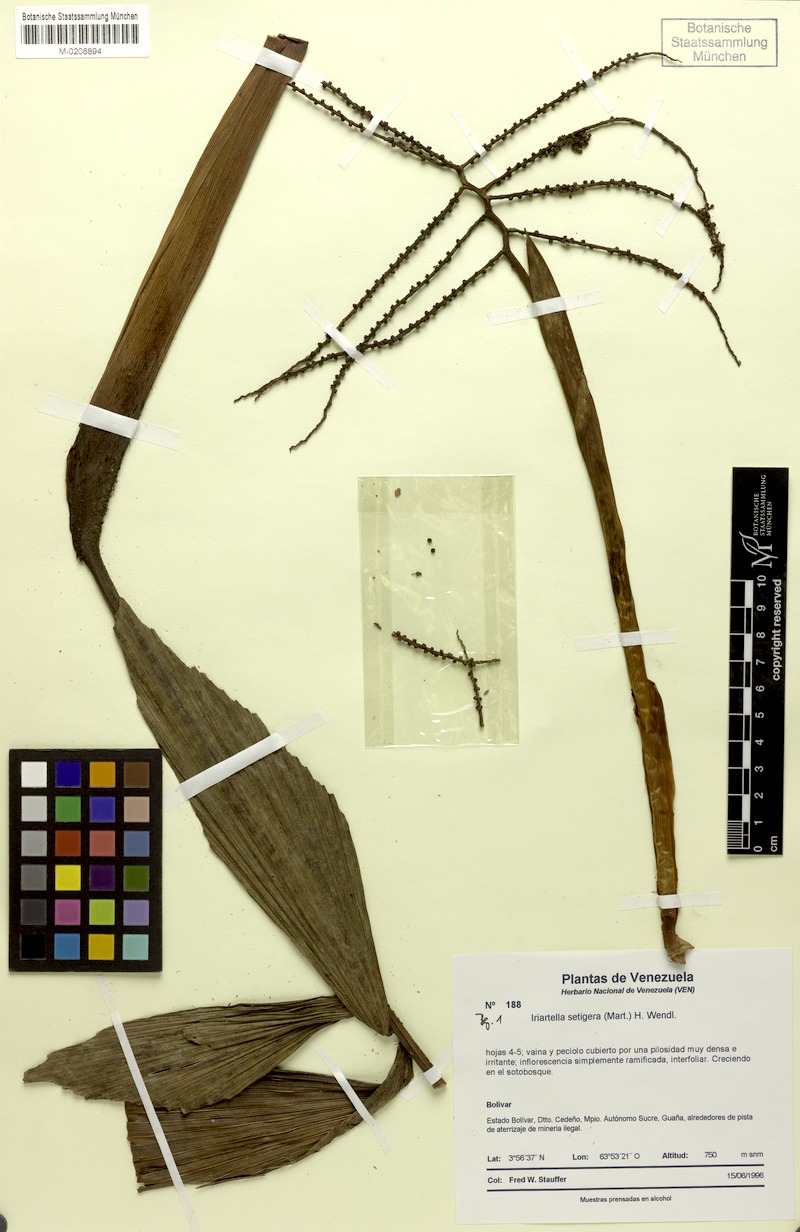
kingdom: Plantae
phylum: Tracheophyta
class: Liliopsida
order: Arecales
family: Arecaceae
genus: Iriartella
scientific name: Iriartella setigera
